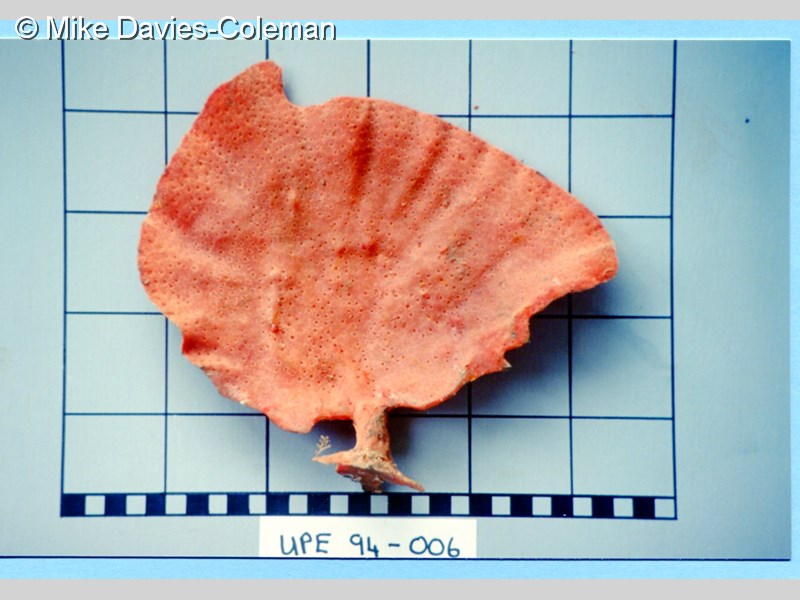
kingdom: Animalia
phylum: Porifera
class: Demospongiae
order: Poecilosclerida
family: Isodictyidae
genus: Isodictya
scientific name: Isodictya grandis
